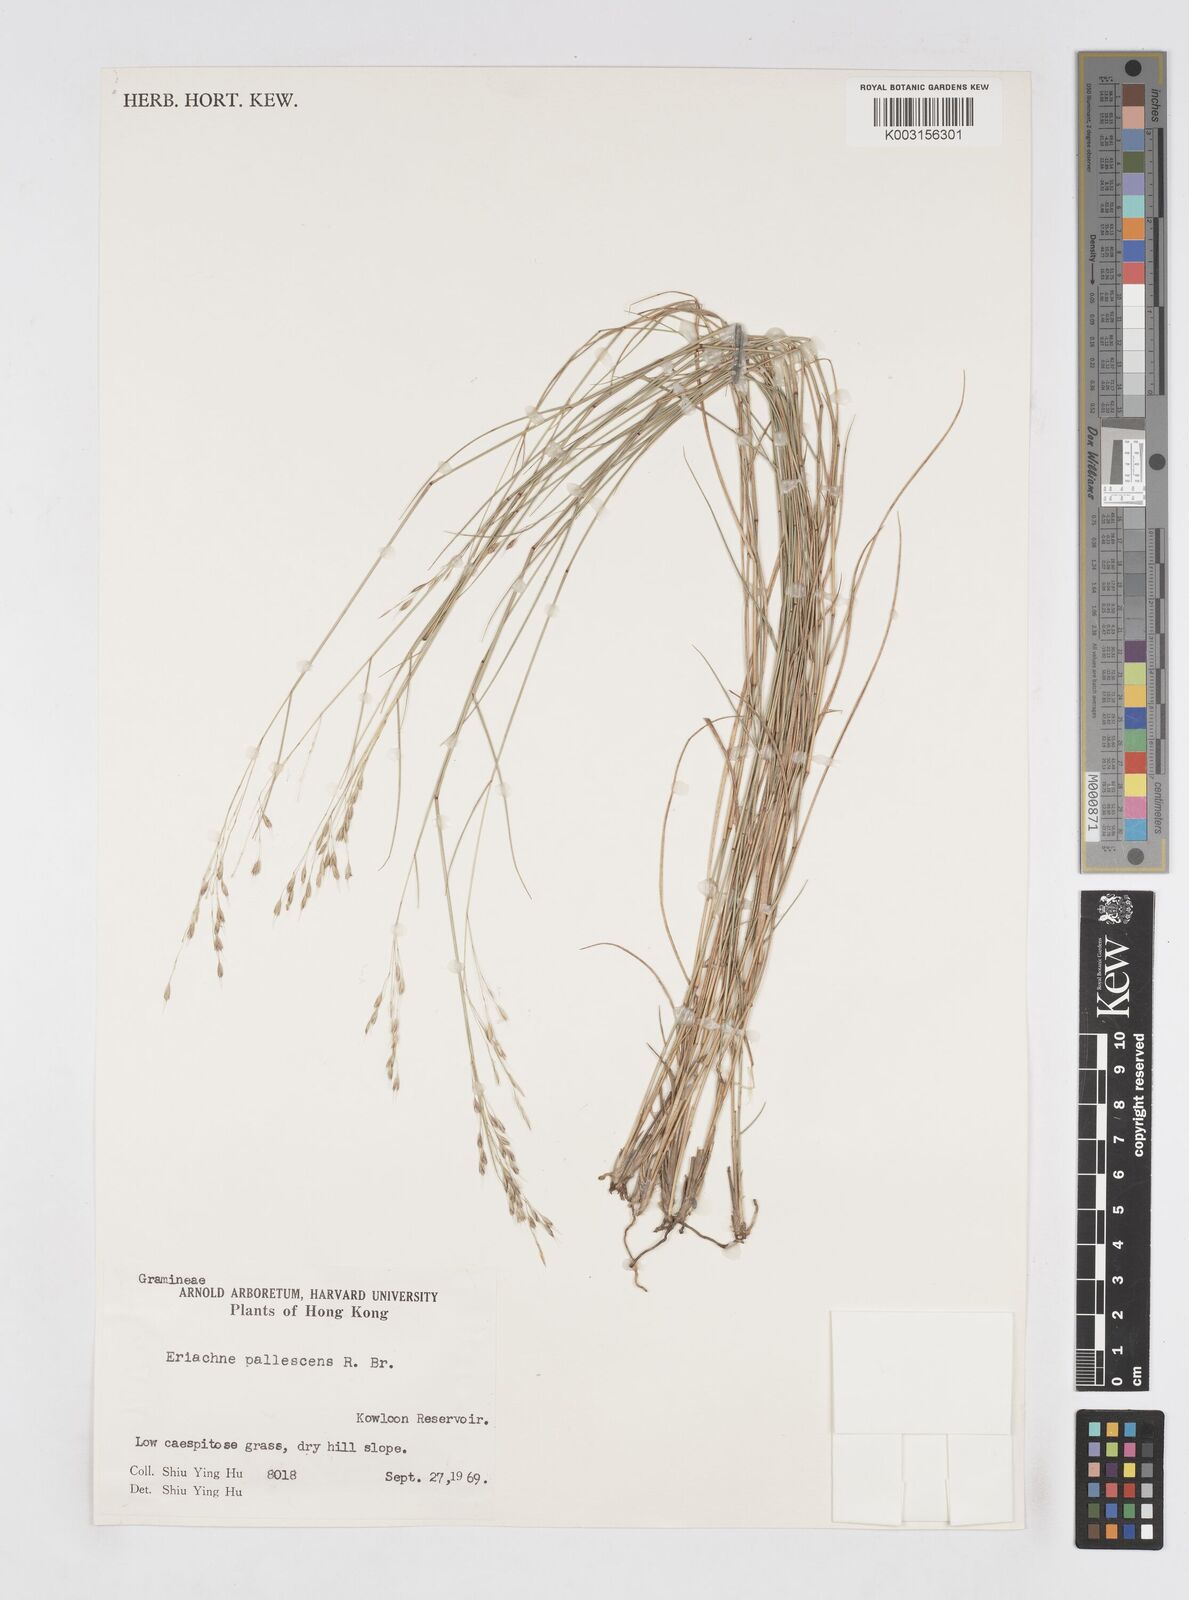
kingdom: Plantae
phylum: Tracheophyta
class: Liliopsida
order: Poales
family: Poaceae
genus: Eriachne
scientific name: Eriachne pallescens
